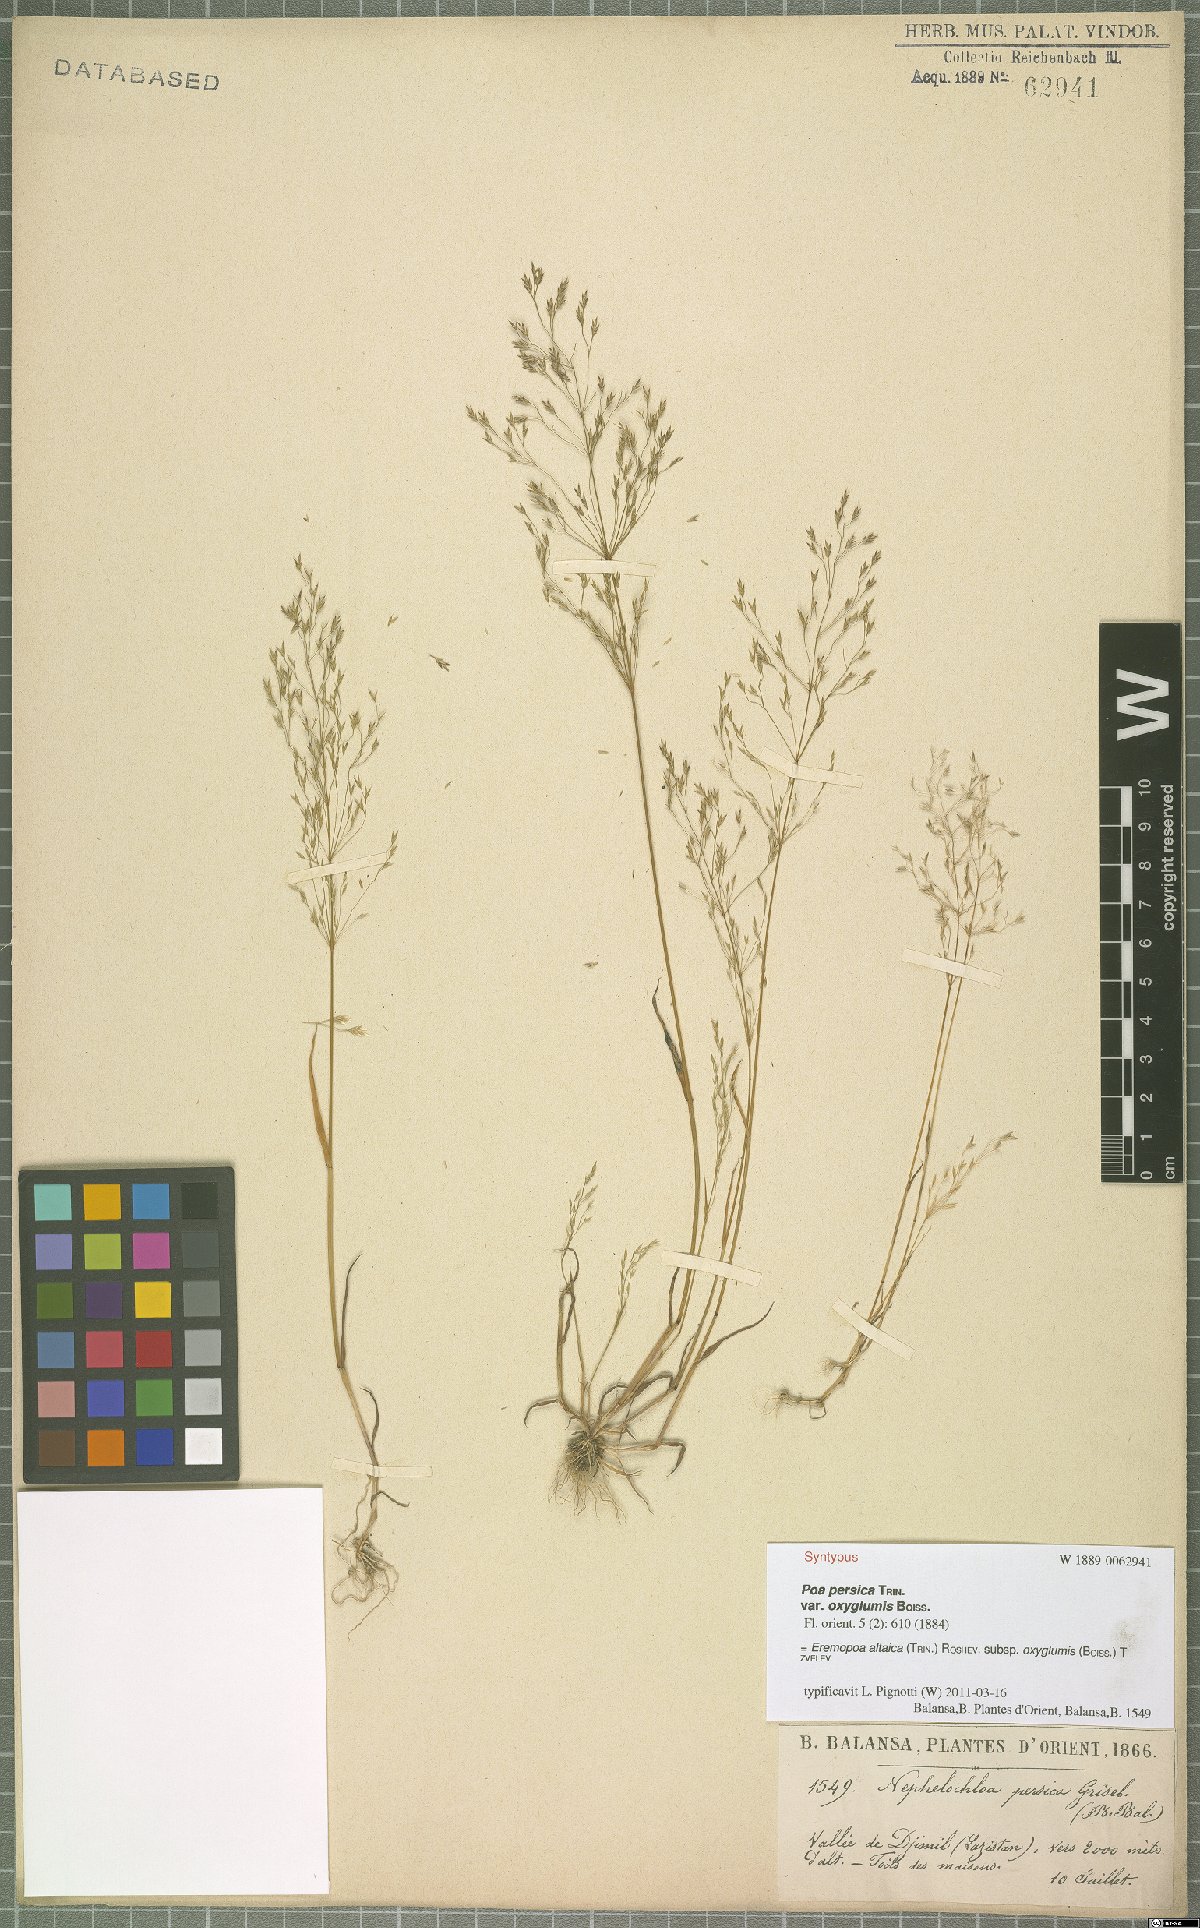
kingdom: Plantae
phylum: Tracheophyta
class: Liliopsida
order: Poales
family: Poaceae
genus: Poa
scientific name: Poa diaphora
